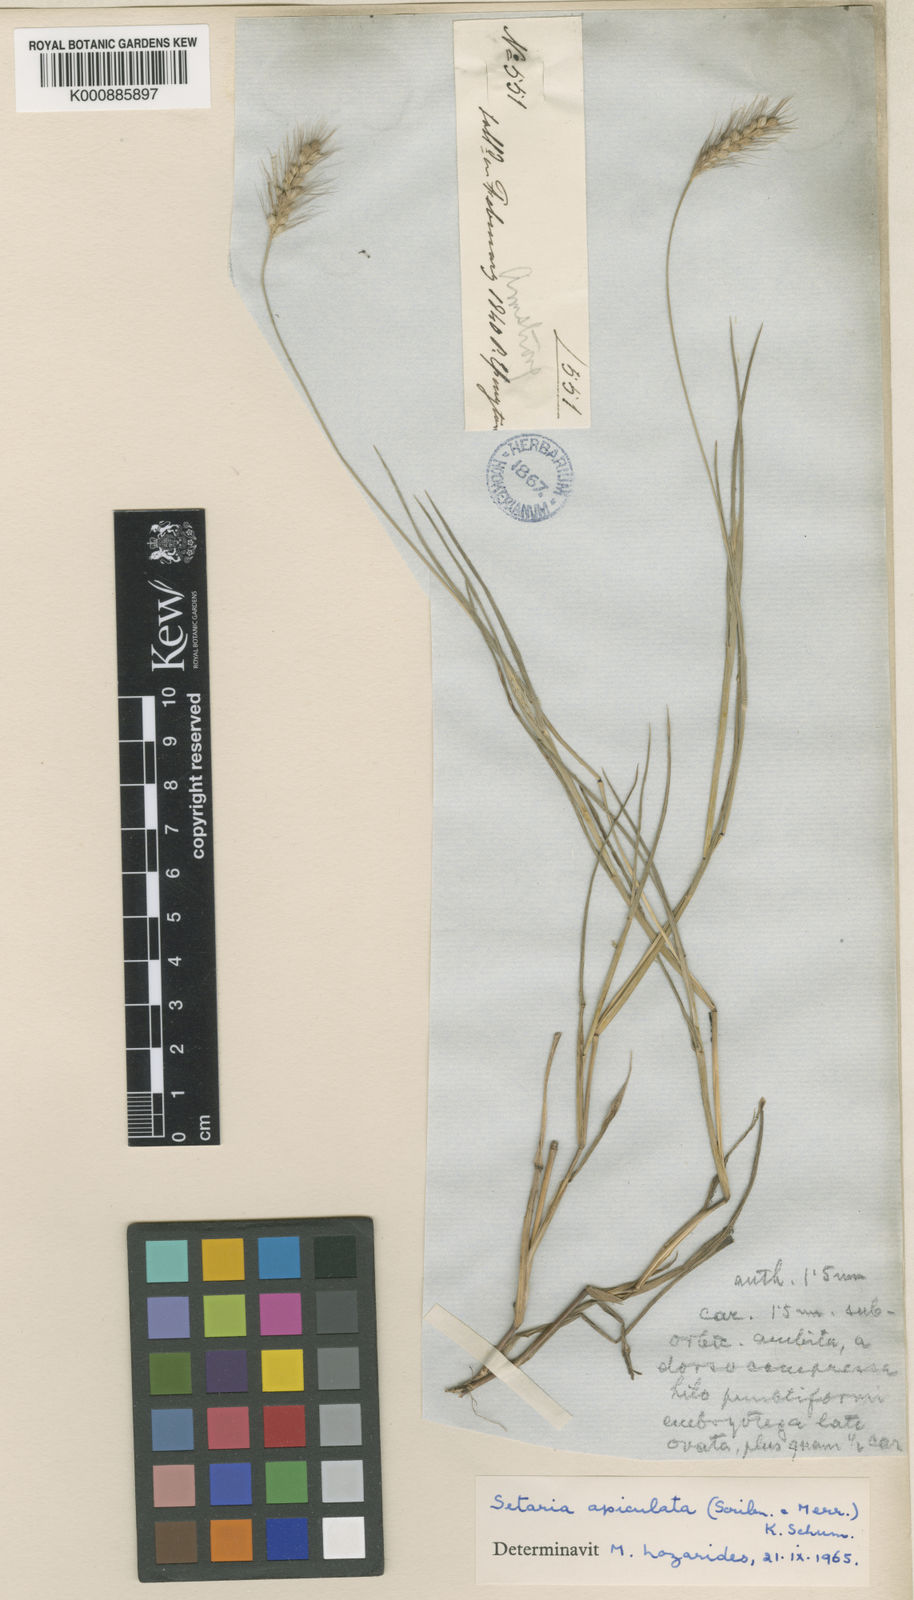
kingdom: Plantae
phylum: Tracheophyta
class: Liliopsida
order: Poales
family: Poaceae
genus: Setaria
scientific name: Setaria apiculata
